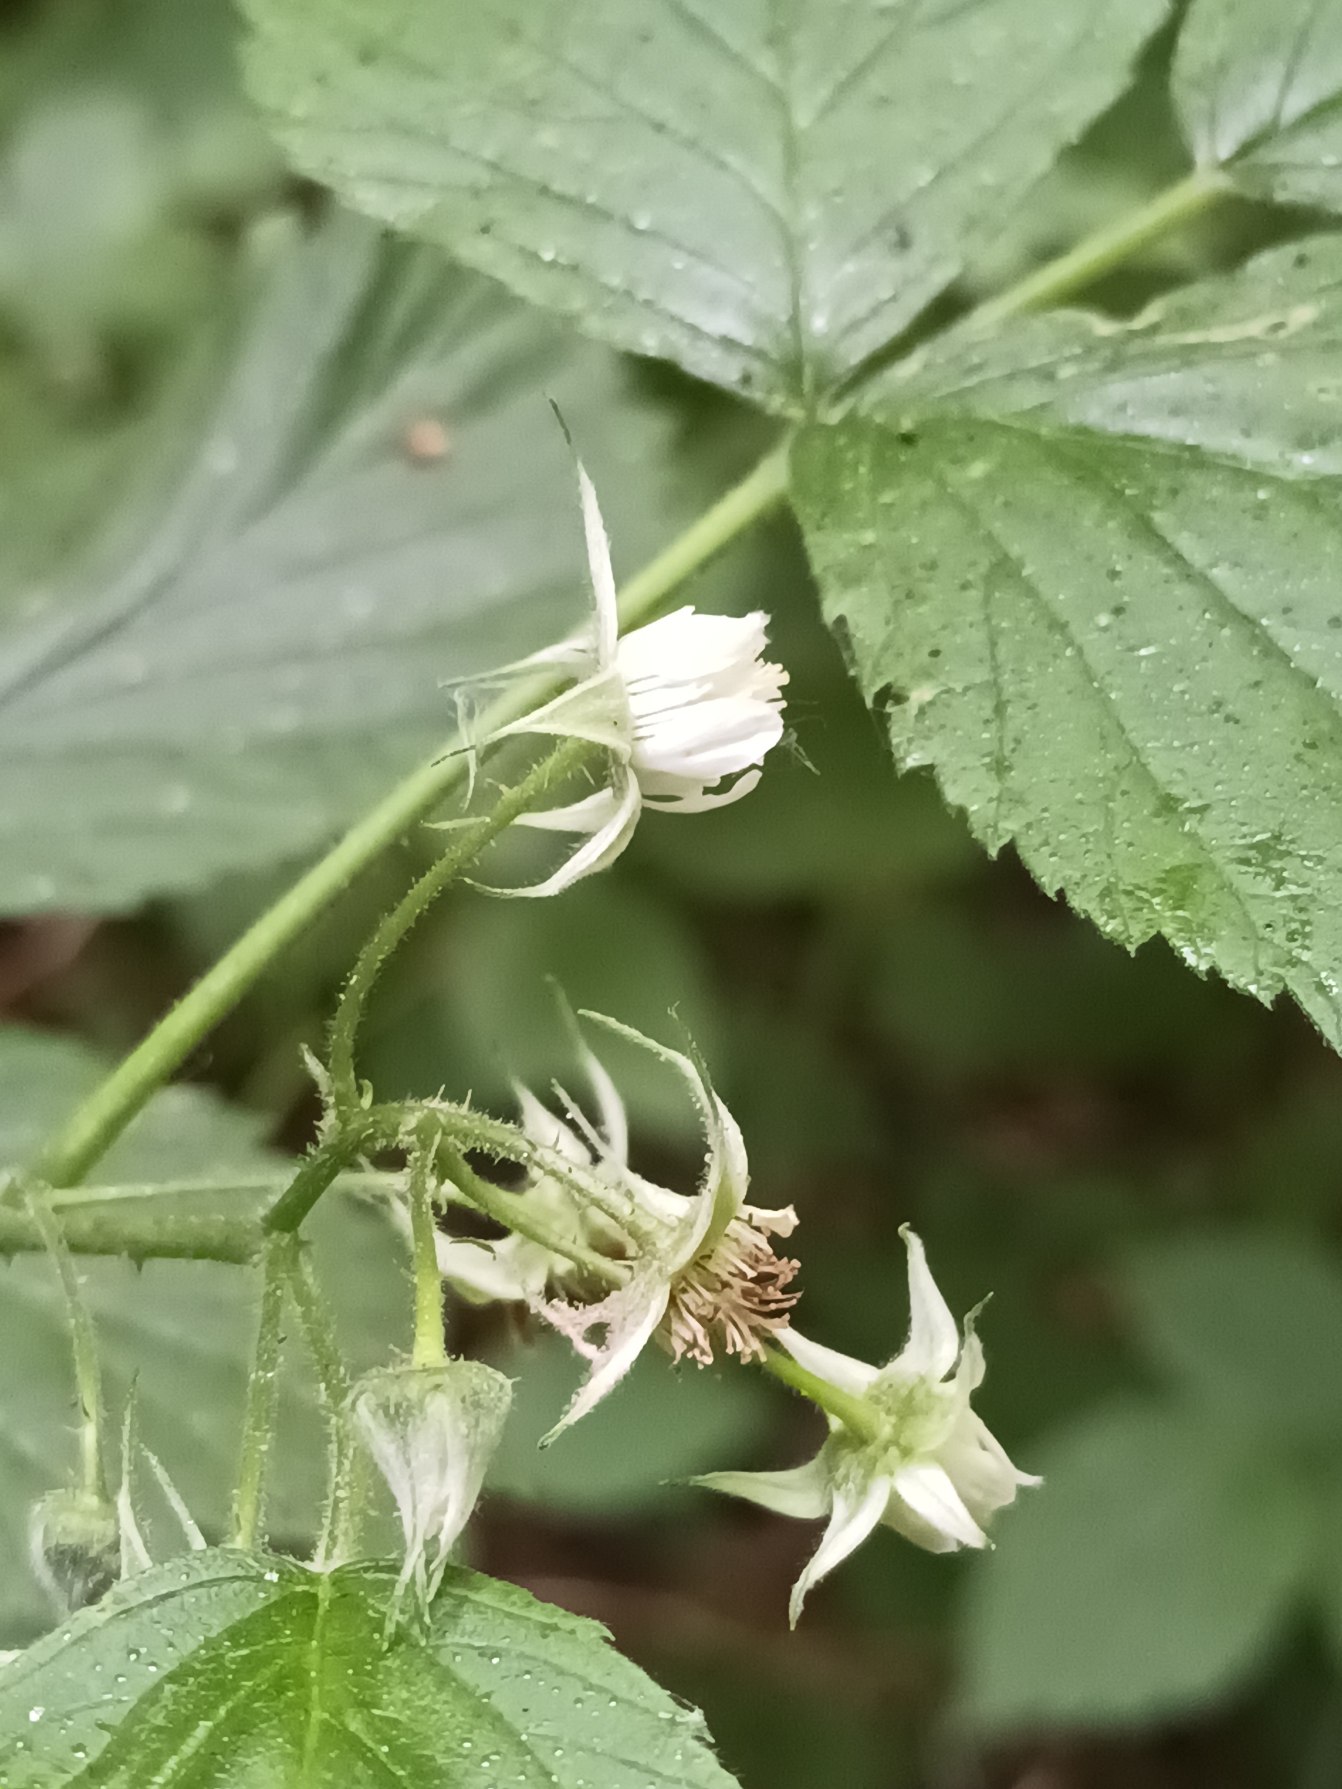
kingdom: Plantae
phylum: Tracheophyta
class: Magnoliopsida
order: Rosales
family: Rosaceae
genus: Rubus
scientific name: Rubus idaeus
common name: Hindbær
